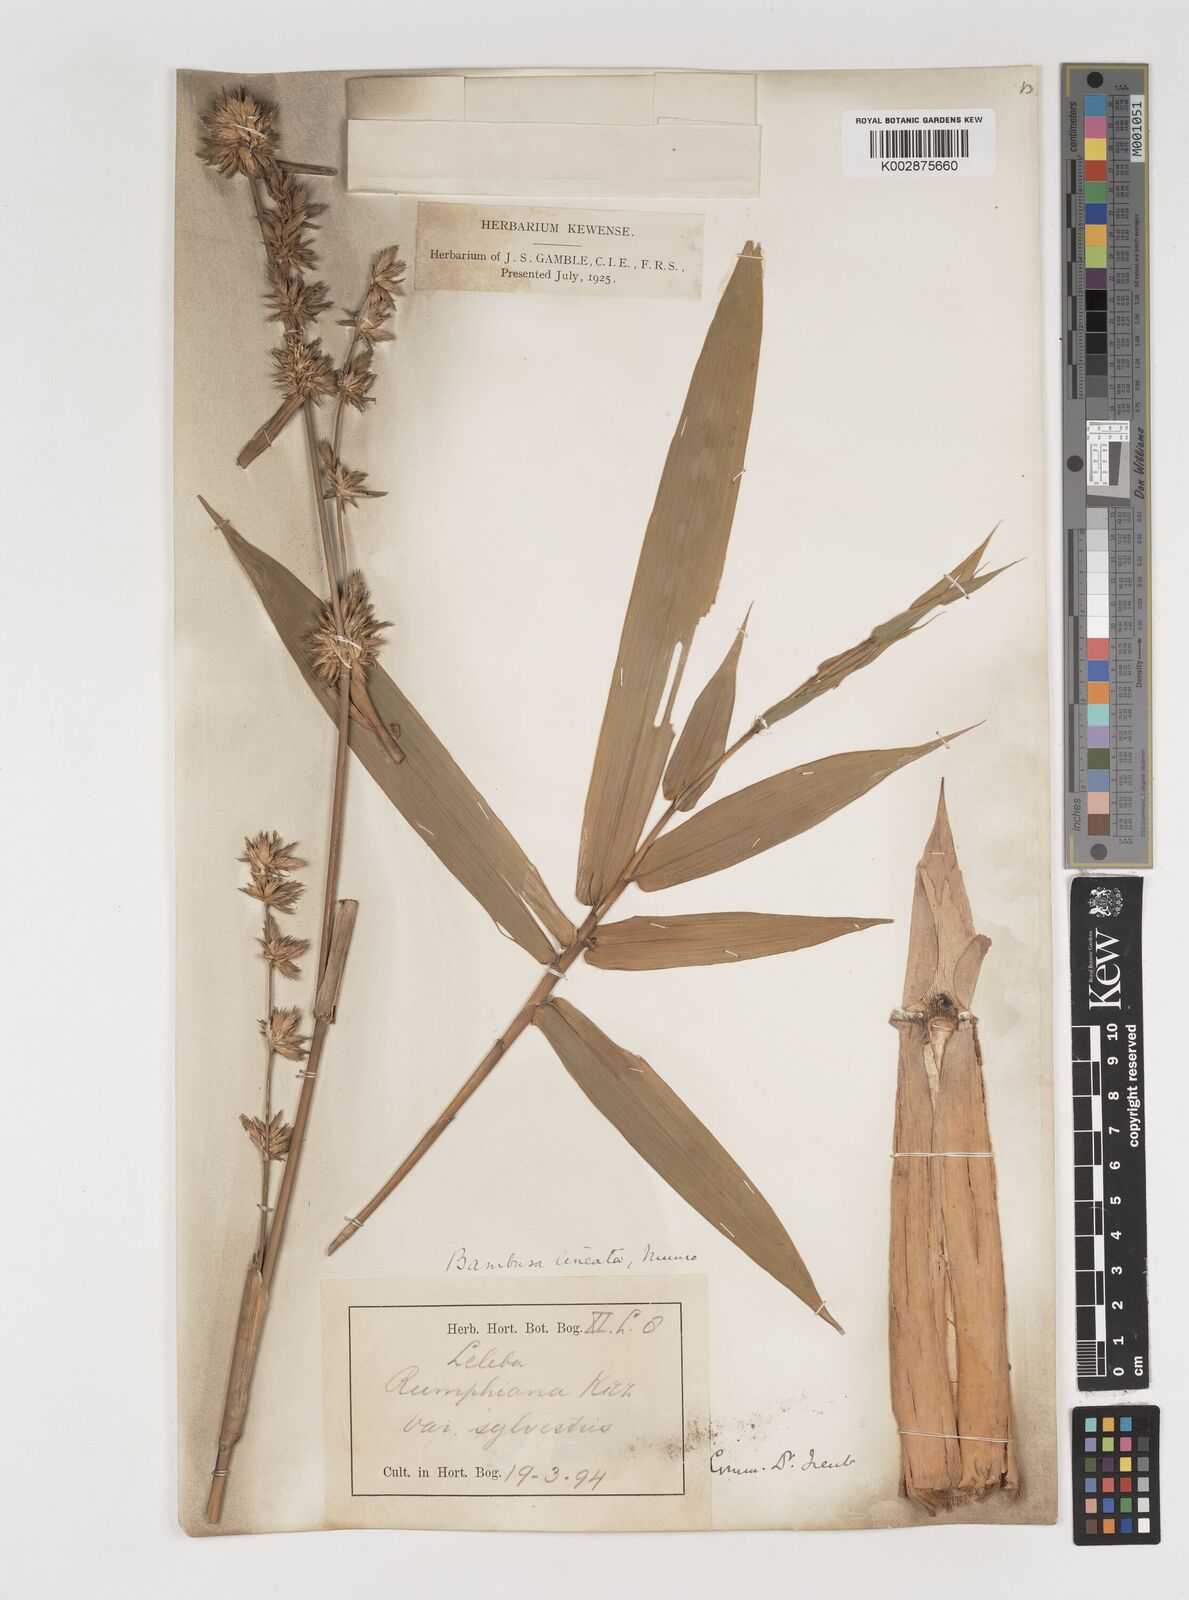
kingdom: Plantae
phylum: Tracheophyta
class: Liliopsida
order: Poales
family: Poaceae
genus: Neololeba
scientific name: Neololeba atra
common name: Cape bamboo
